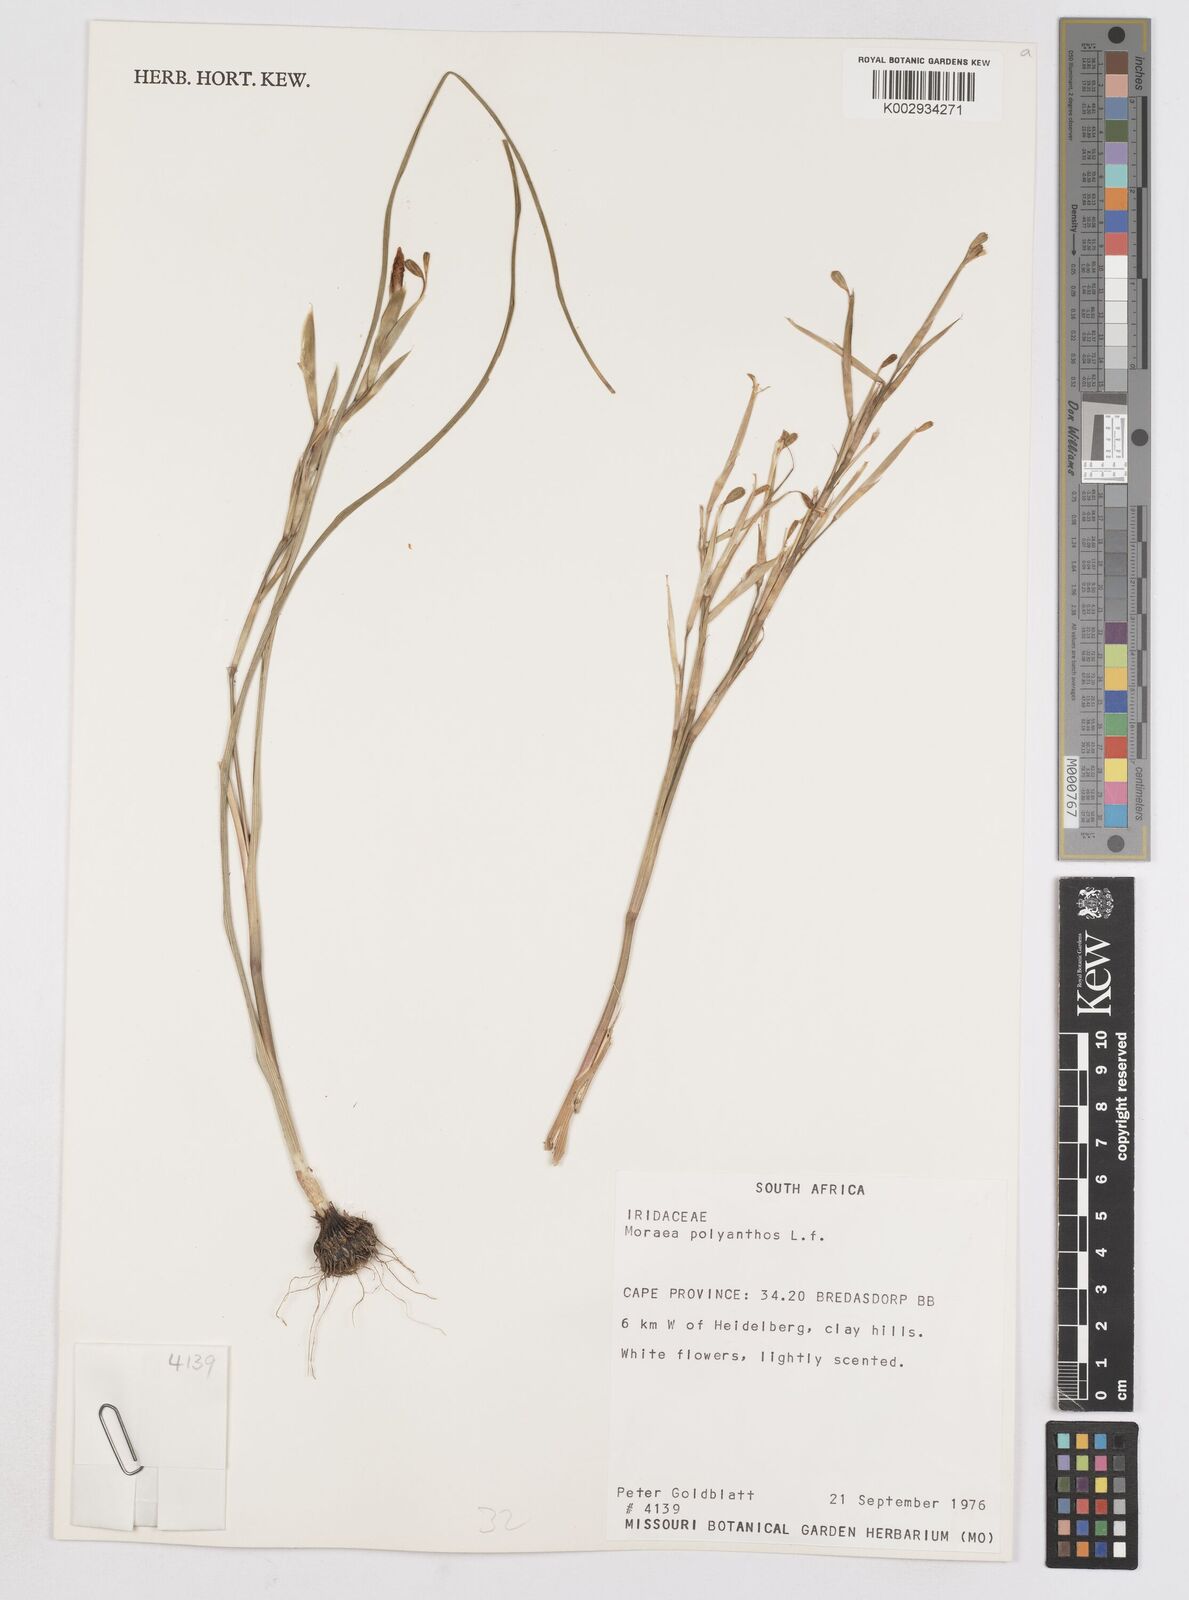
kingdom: Plantae
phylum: Tracheophyta
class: Liliopsida
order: Asparagales
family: Iridaceae
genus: Moraea
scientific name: Moraea bipartita
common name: Blue tulp
